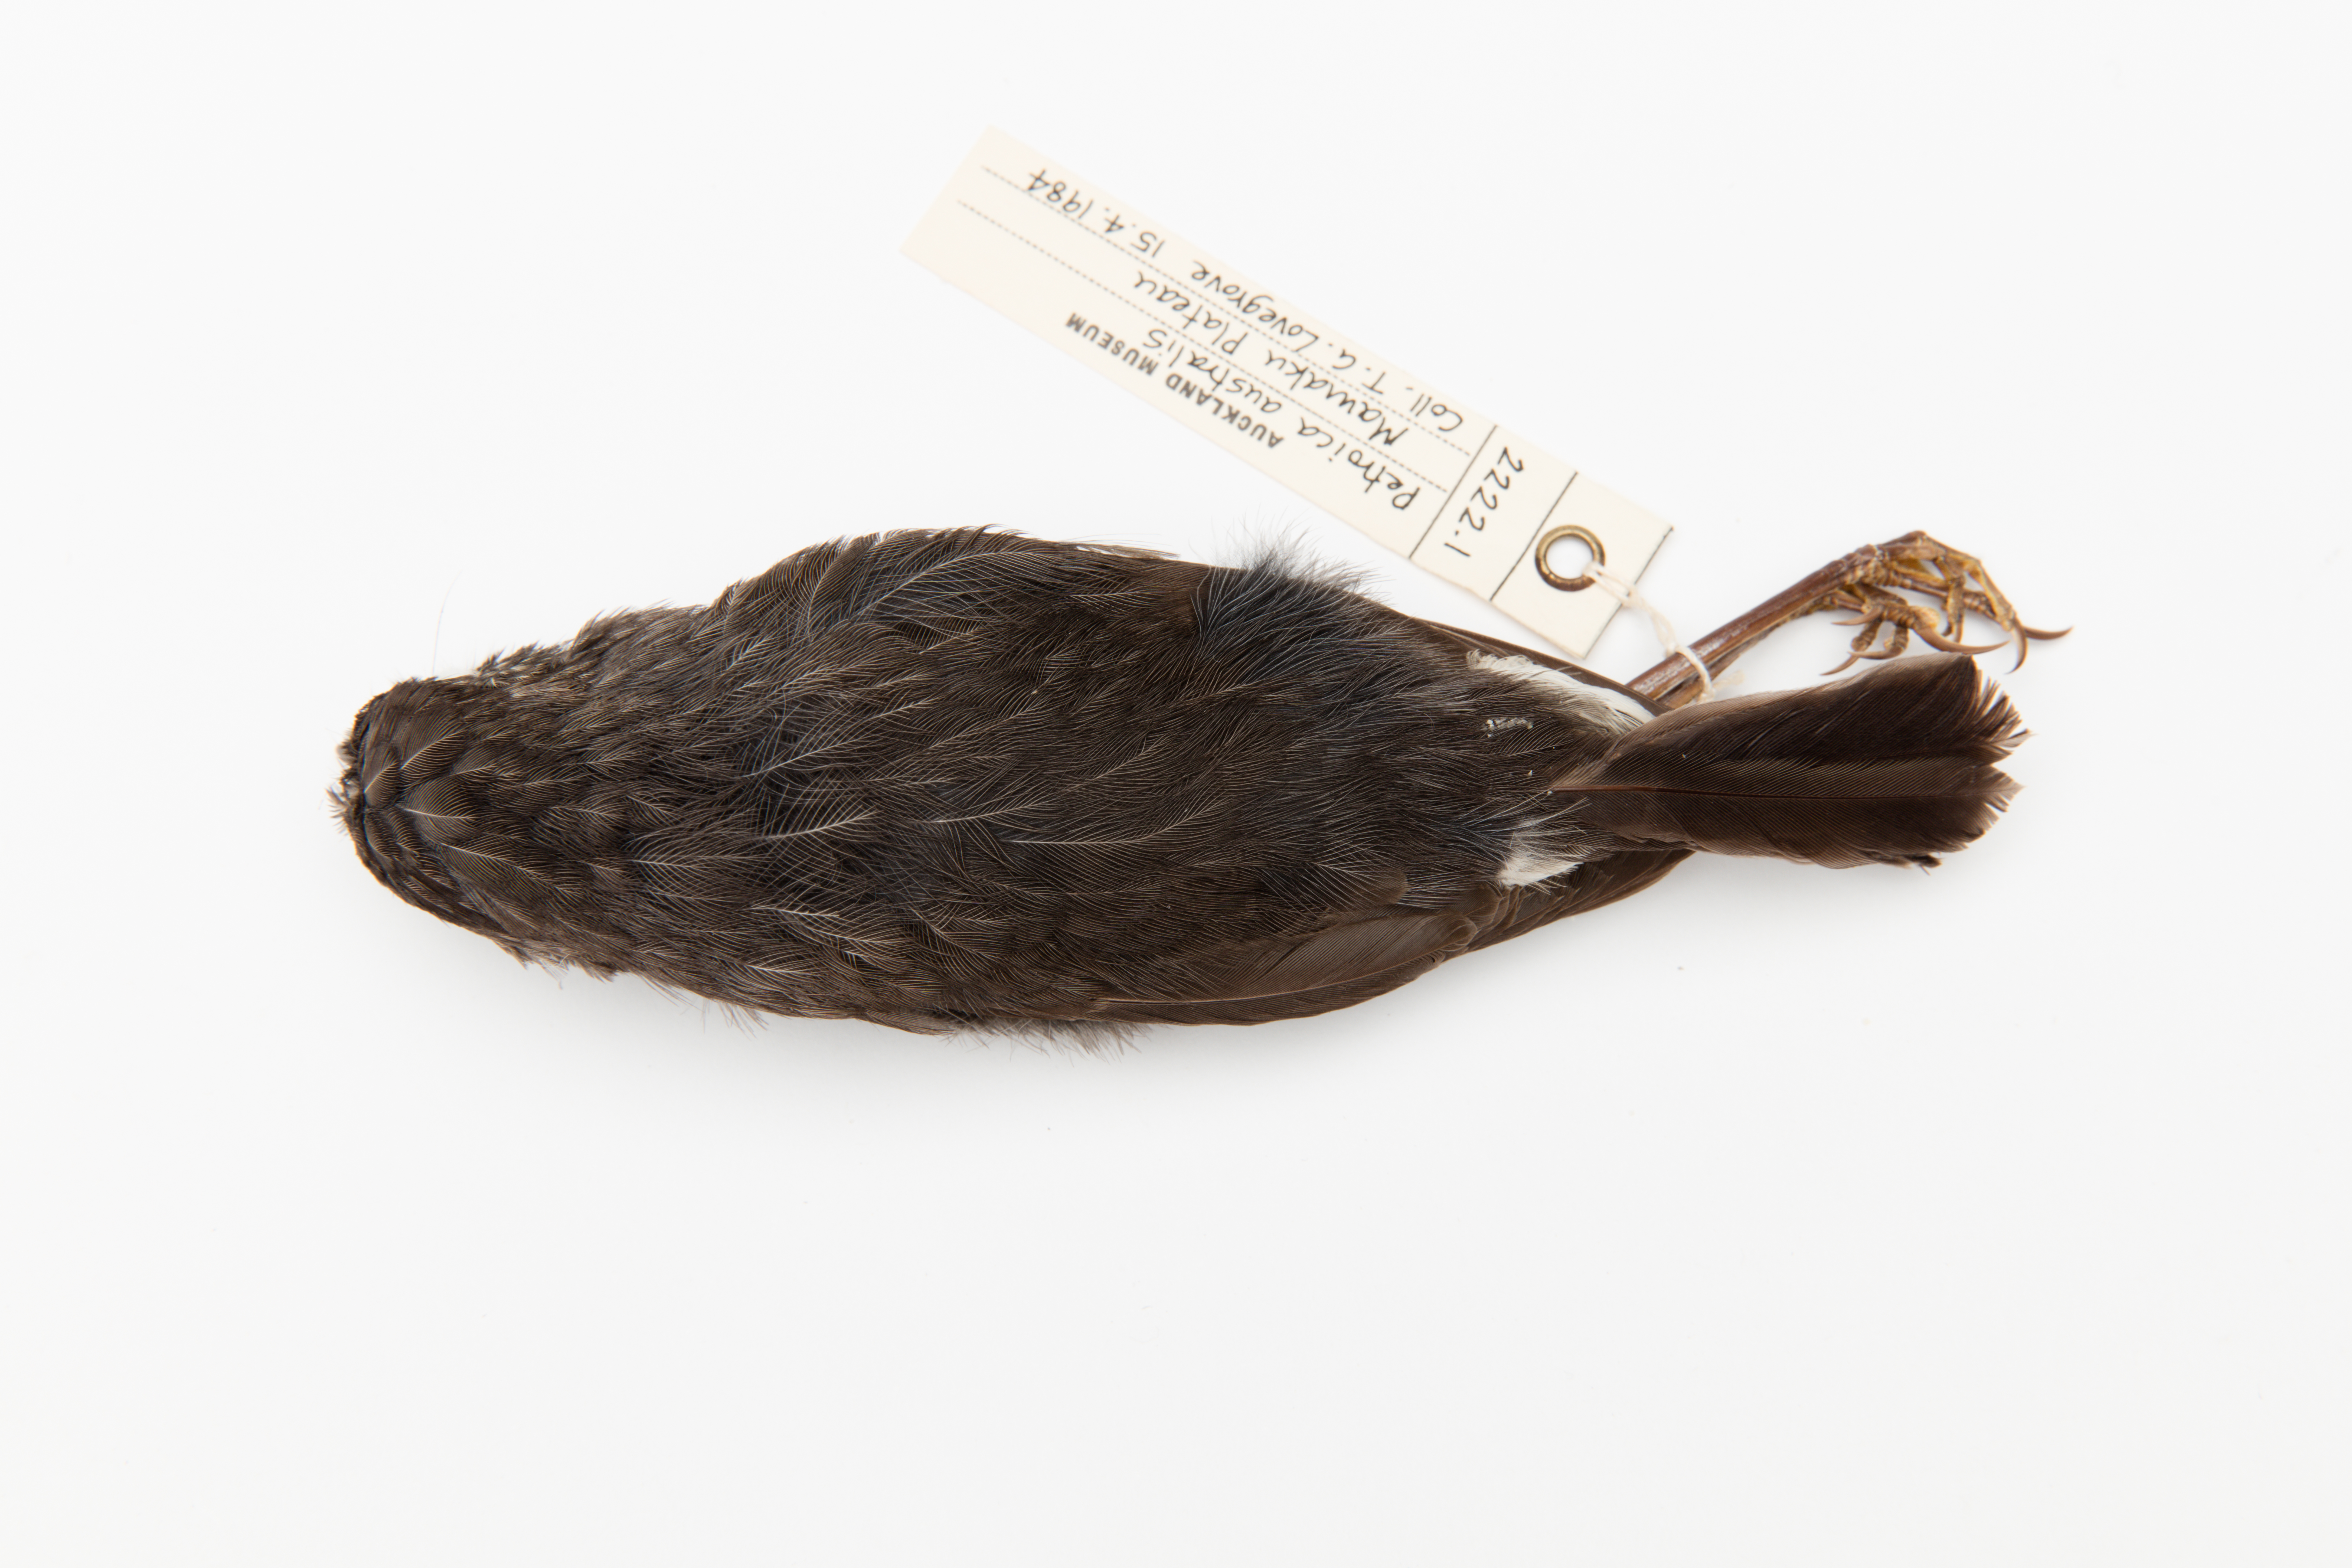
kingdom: Animalia
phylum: Chordata
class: Aves
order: Passeriformes
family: Petroicidae
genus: Petroica
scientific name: Petroica australis
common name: New zealand robin
